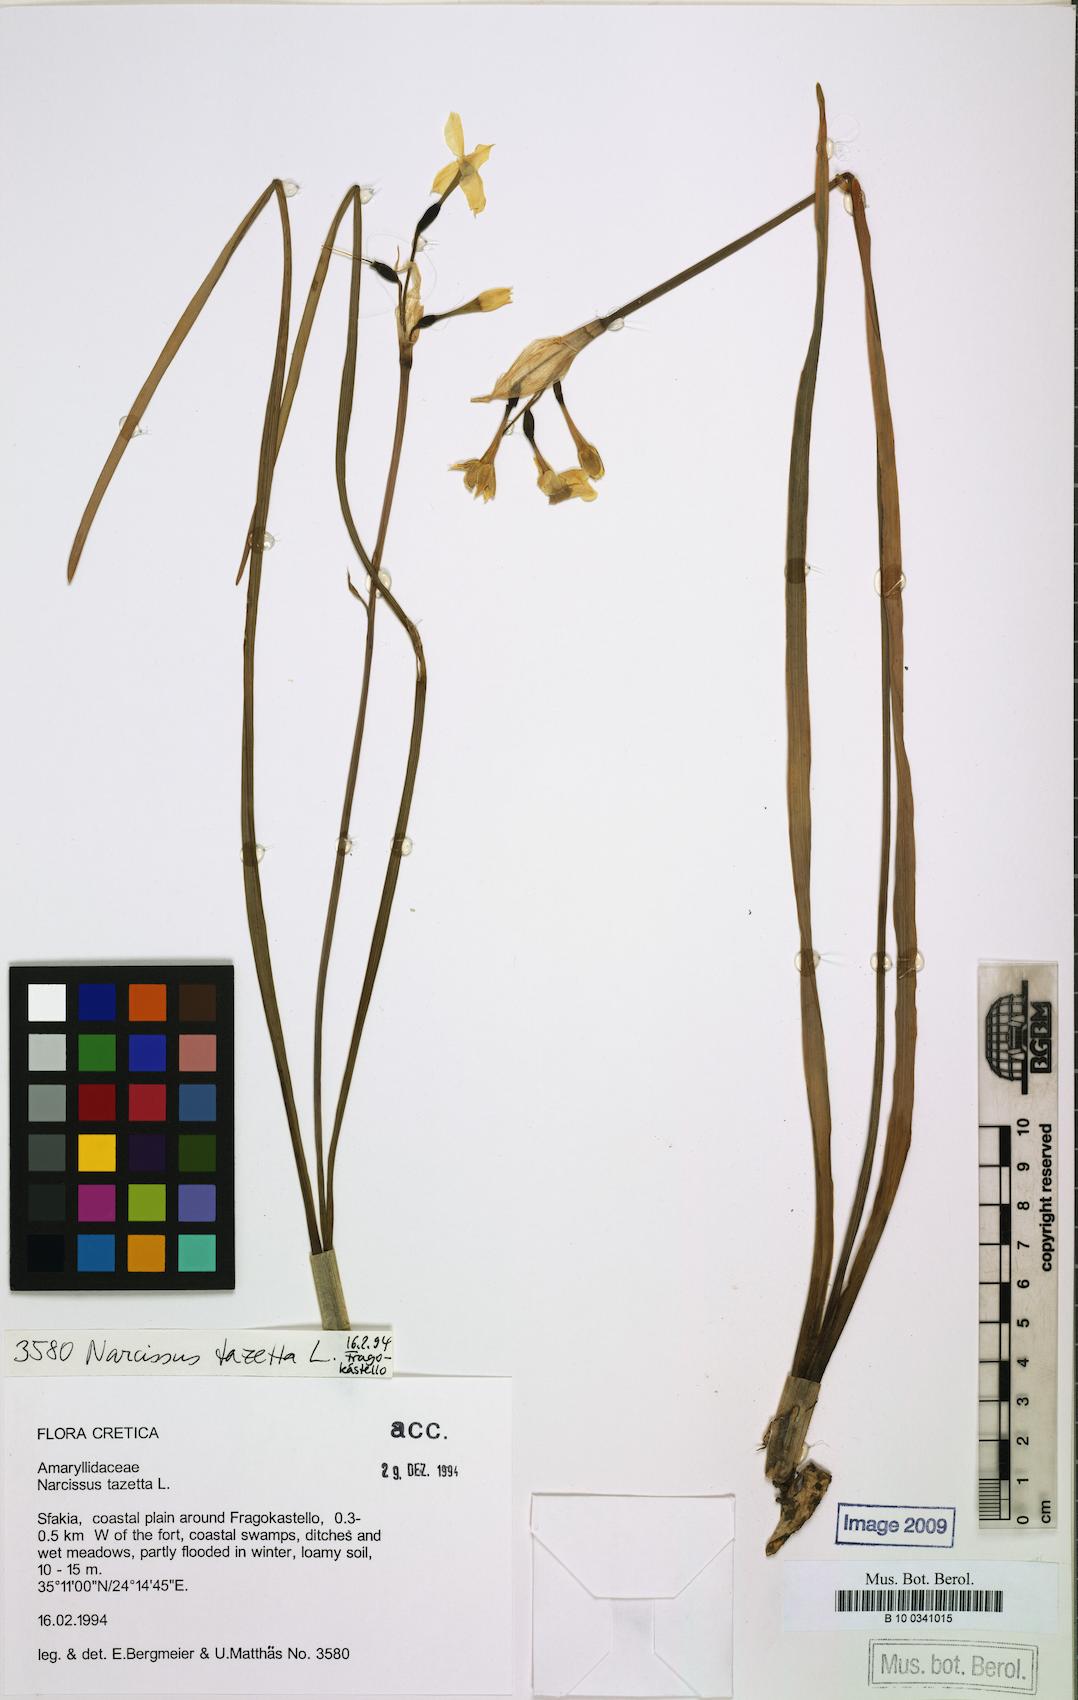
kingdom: Plantae
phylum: Tracheophyta
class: Liliopsida
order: Asparagales
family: Amaryllidaceae
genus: Narcissus
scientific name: Narcissus tazetta
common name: Bunch-flowered daffodil
